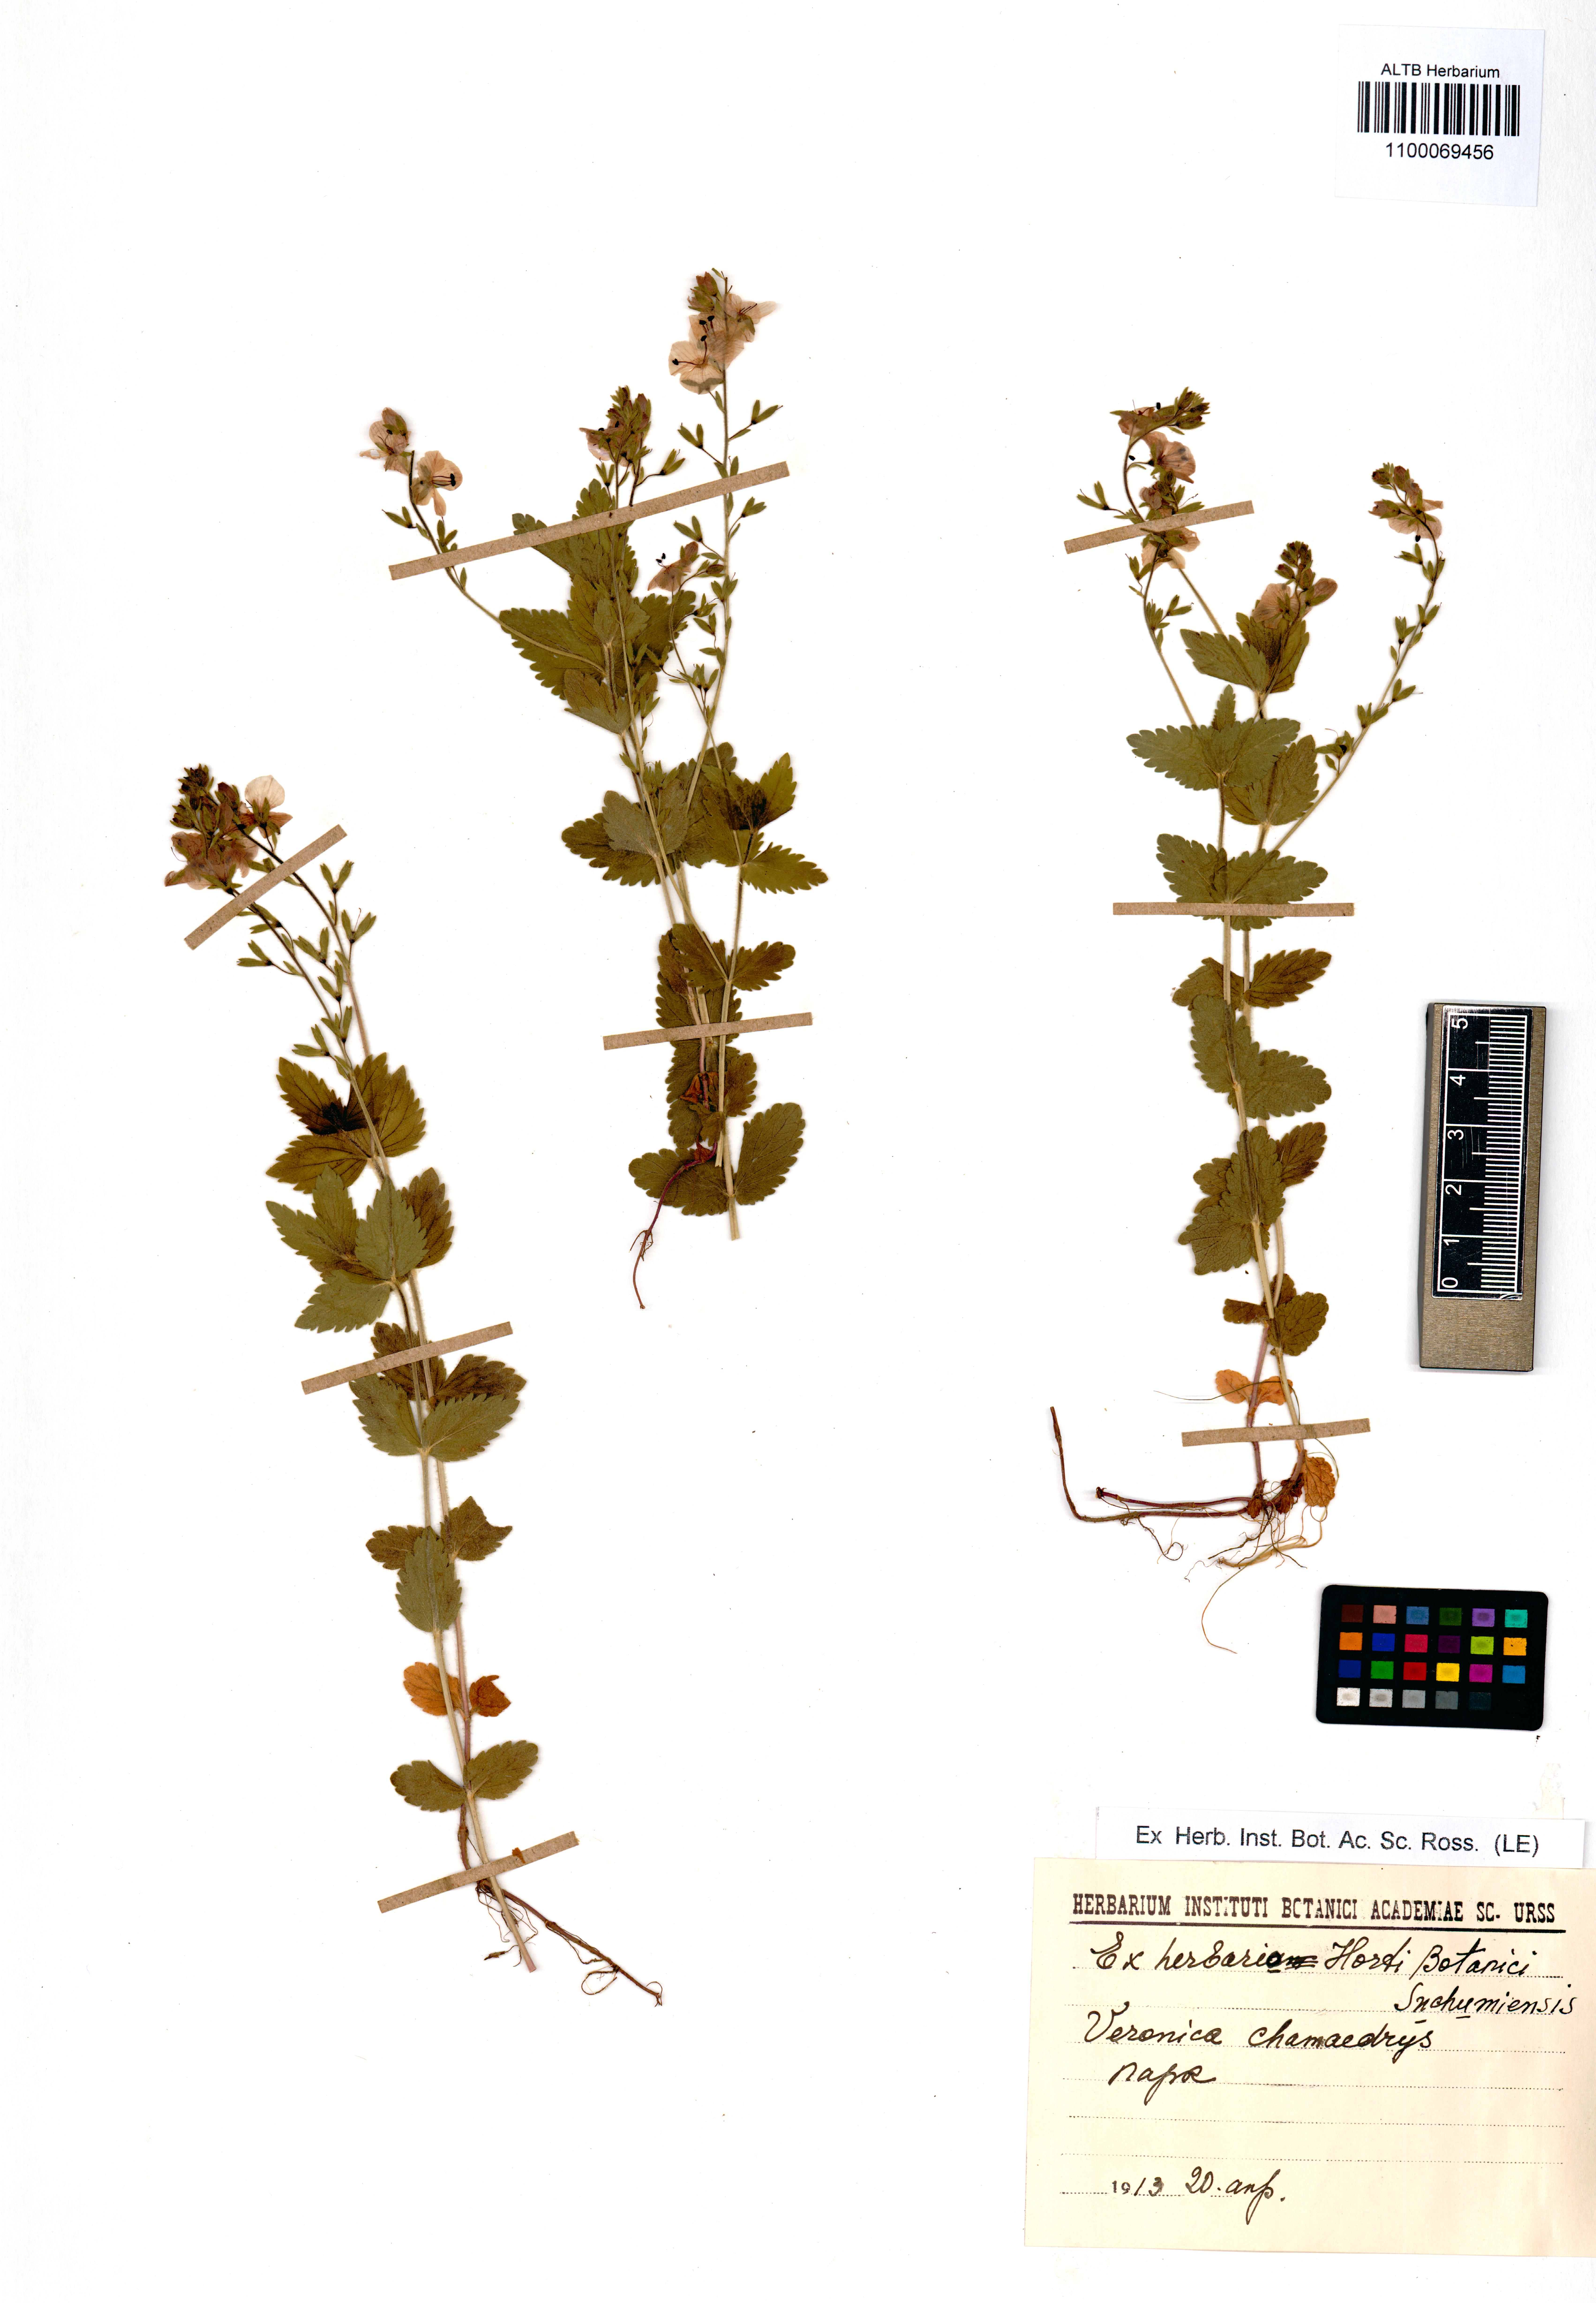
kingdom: Plantae
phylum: Tracheophyta
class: Magnoliopsida
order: Lamiales
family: Plantaginaceae
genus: Veronica
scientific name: Veronica chamaedrys
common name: Germander speedwell
